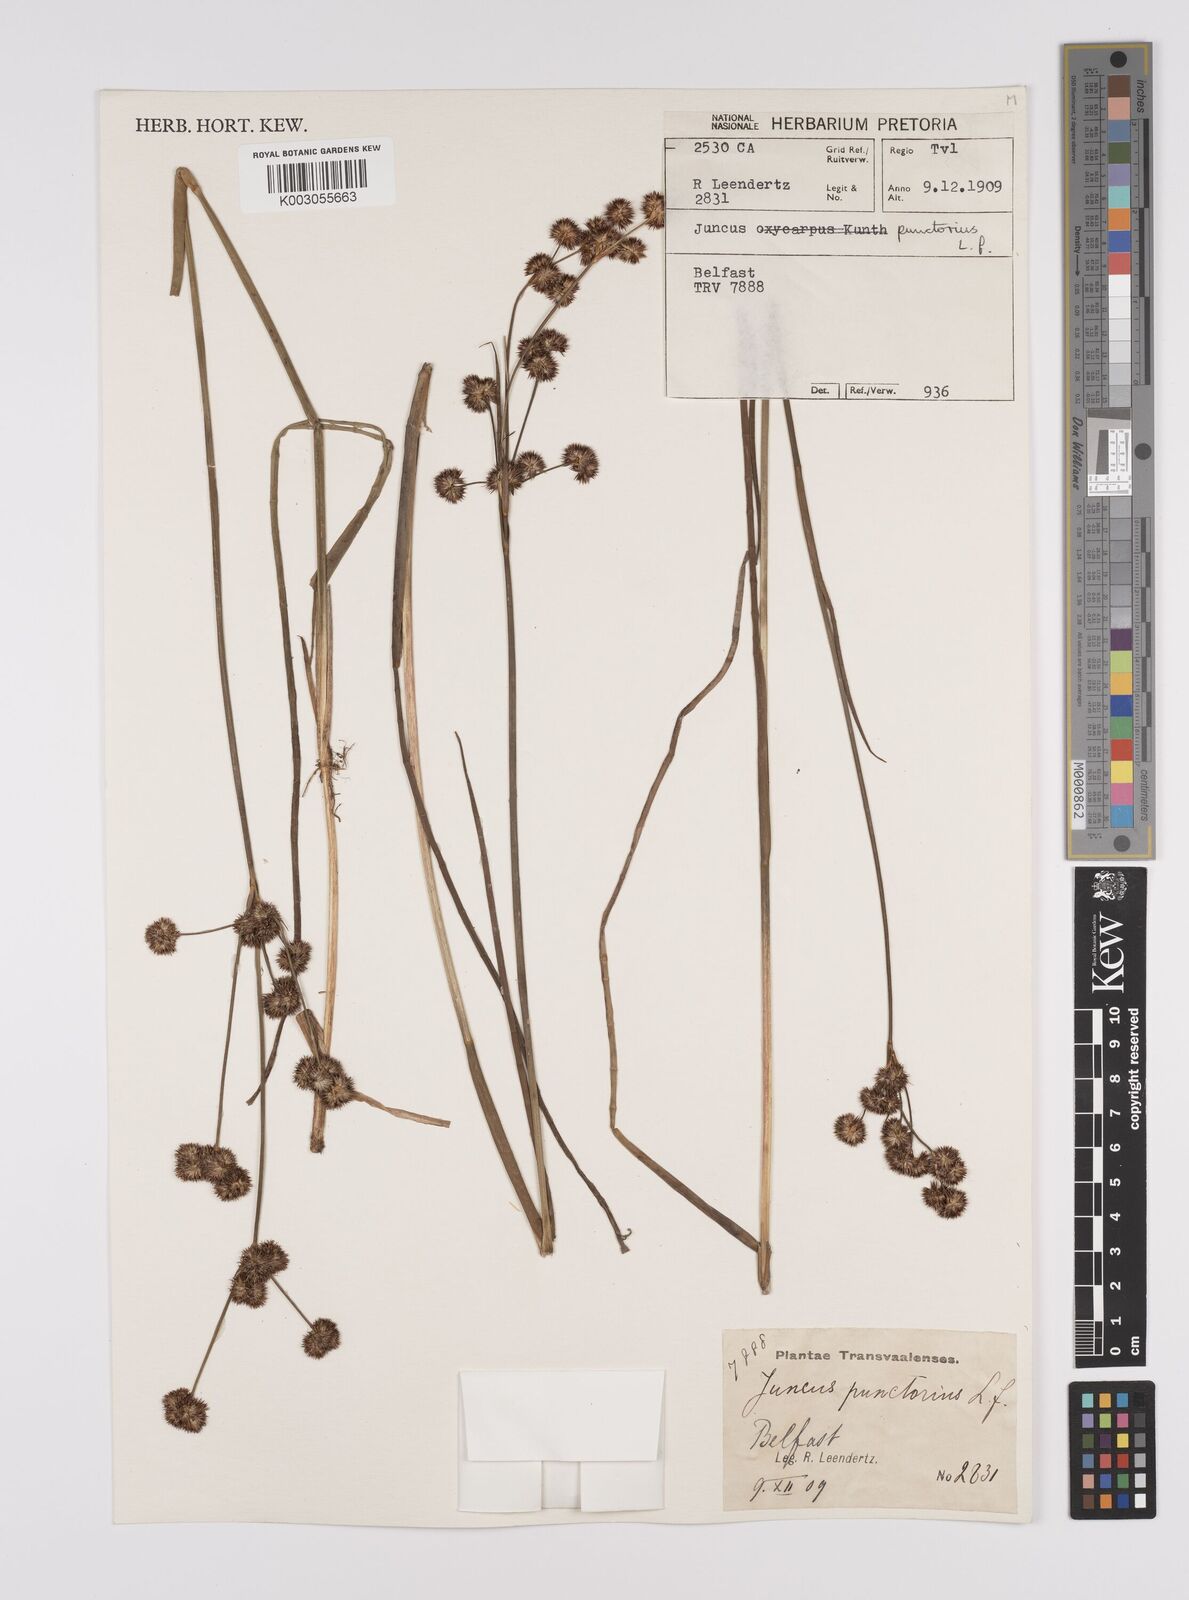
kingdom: Plantae
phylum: Tracheophyta
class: Liliopsida
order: Poales
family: Juncaceae
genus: Juncus
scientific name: Juncus punctorius
